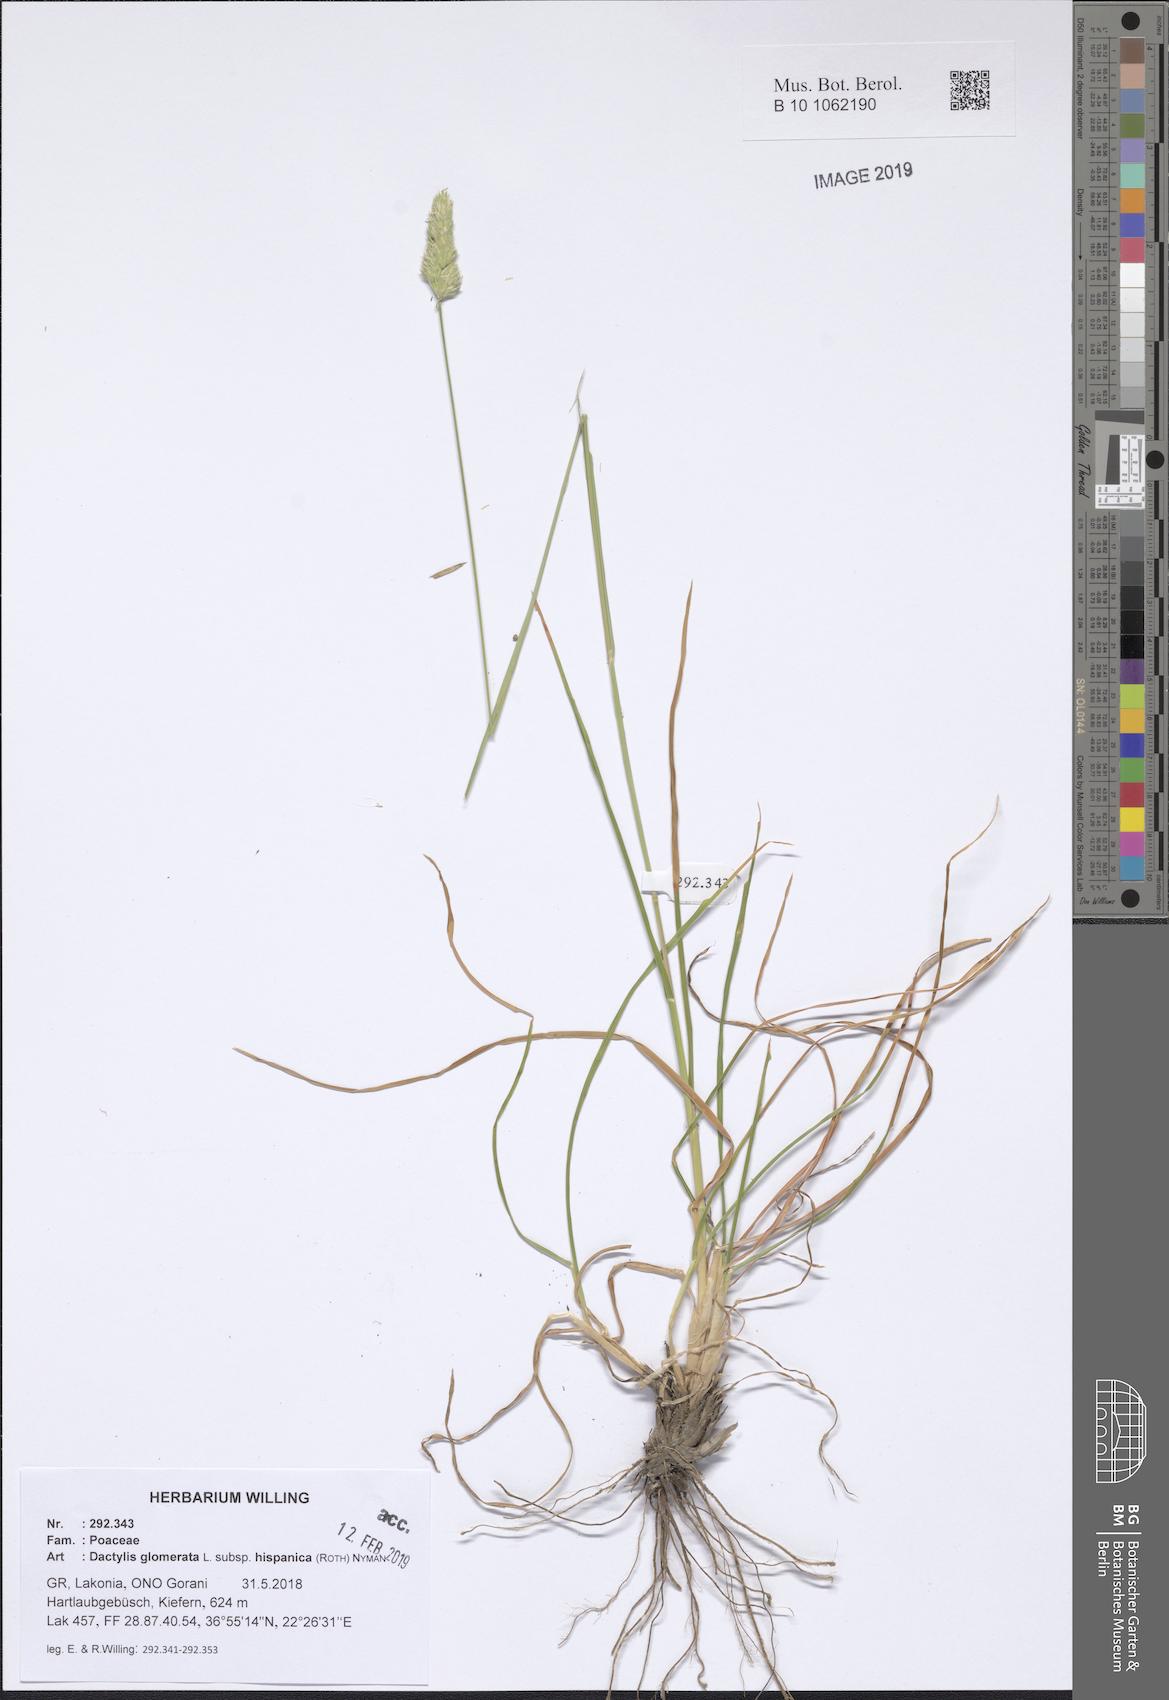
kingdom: Plantae
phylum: Tracheophyta
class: Liliopsida
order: Poales
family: Poaceae
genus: Dactylis
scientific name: Dactylis glomerata
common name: Orchardgrass
